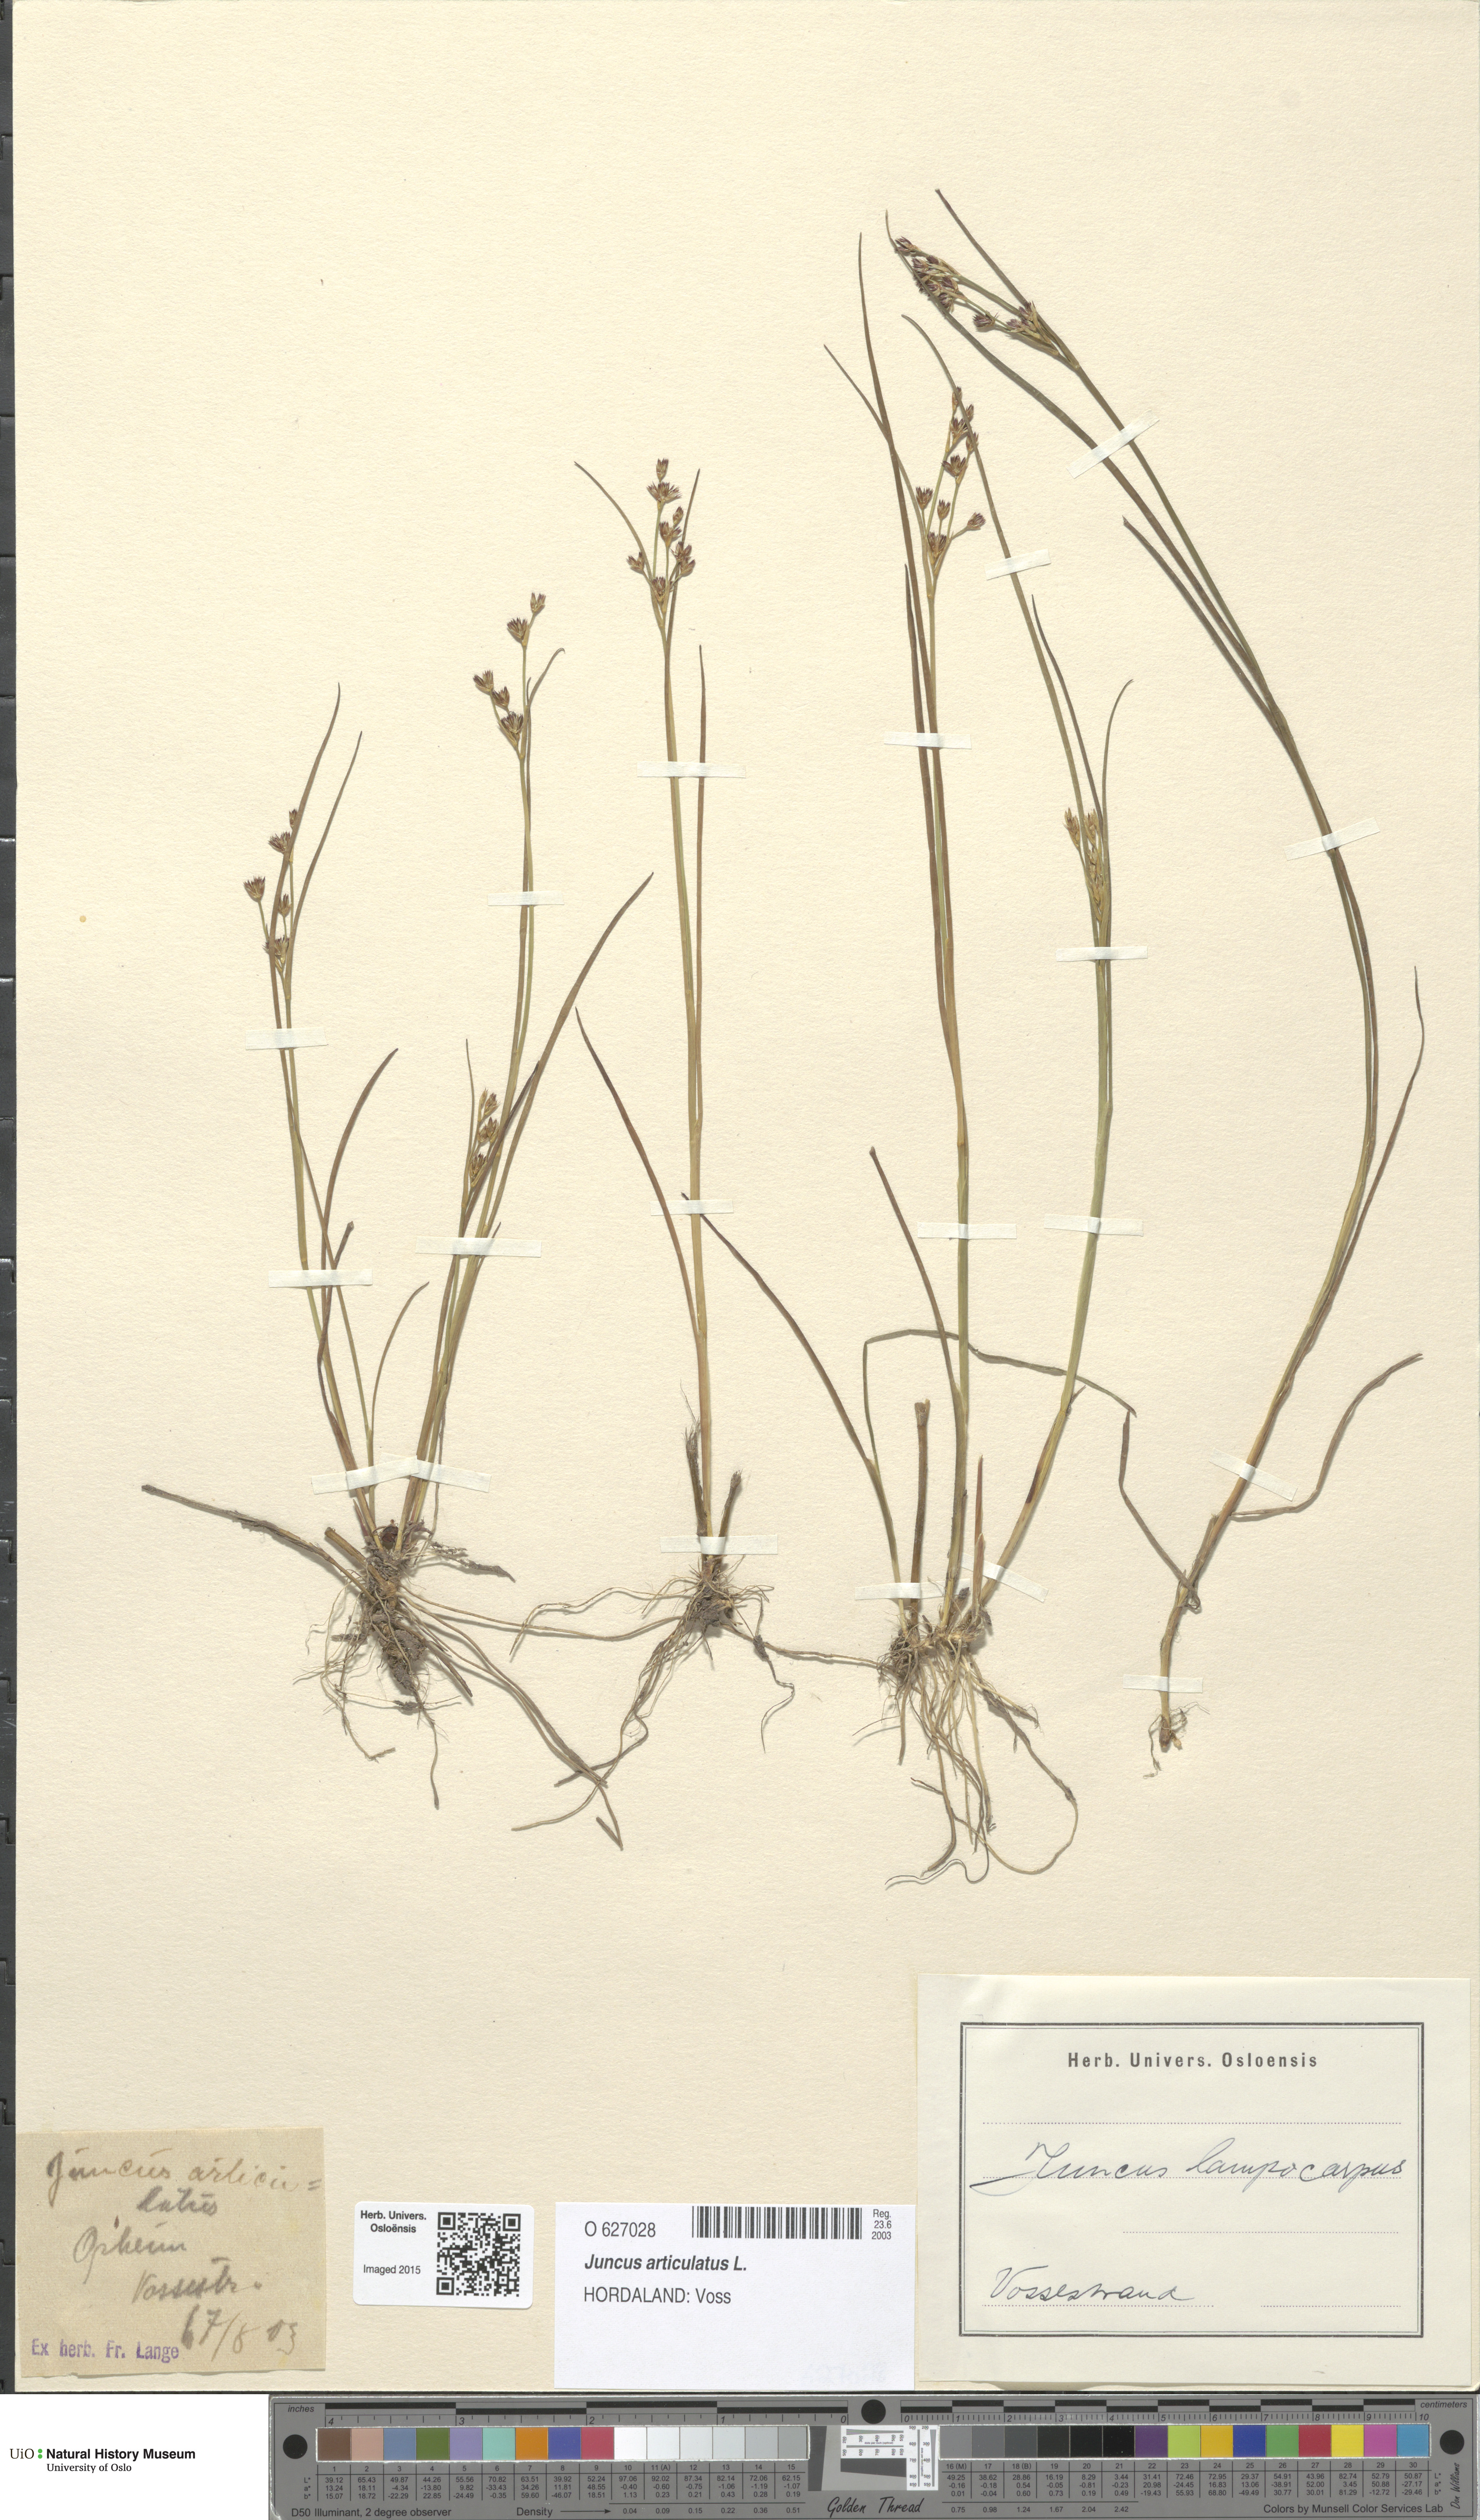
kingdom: Plantae
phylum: Tracheophyta
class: Liliopsida
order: Poales
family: Juncaceae
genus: Juncus
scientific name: Juncus articulatus
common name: Jointed rush
